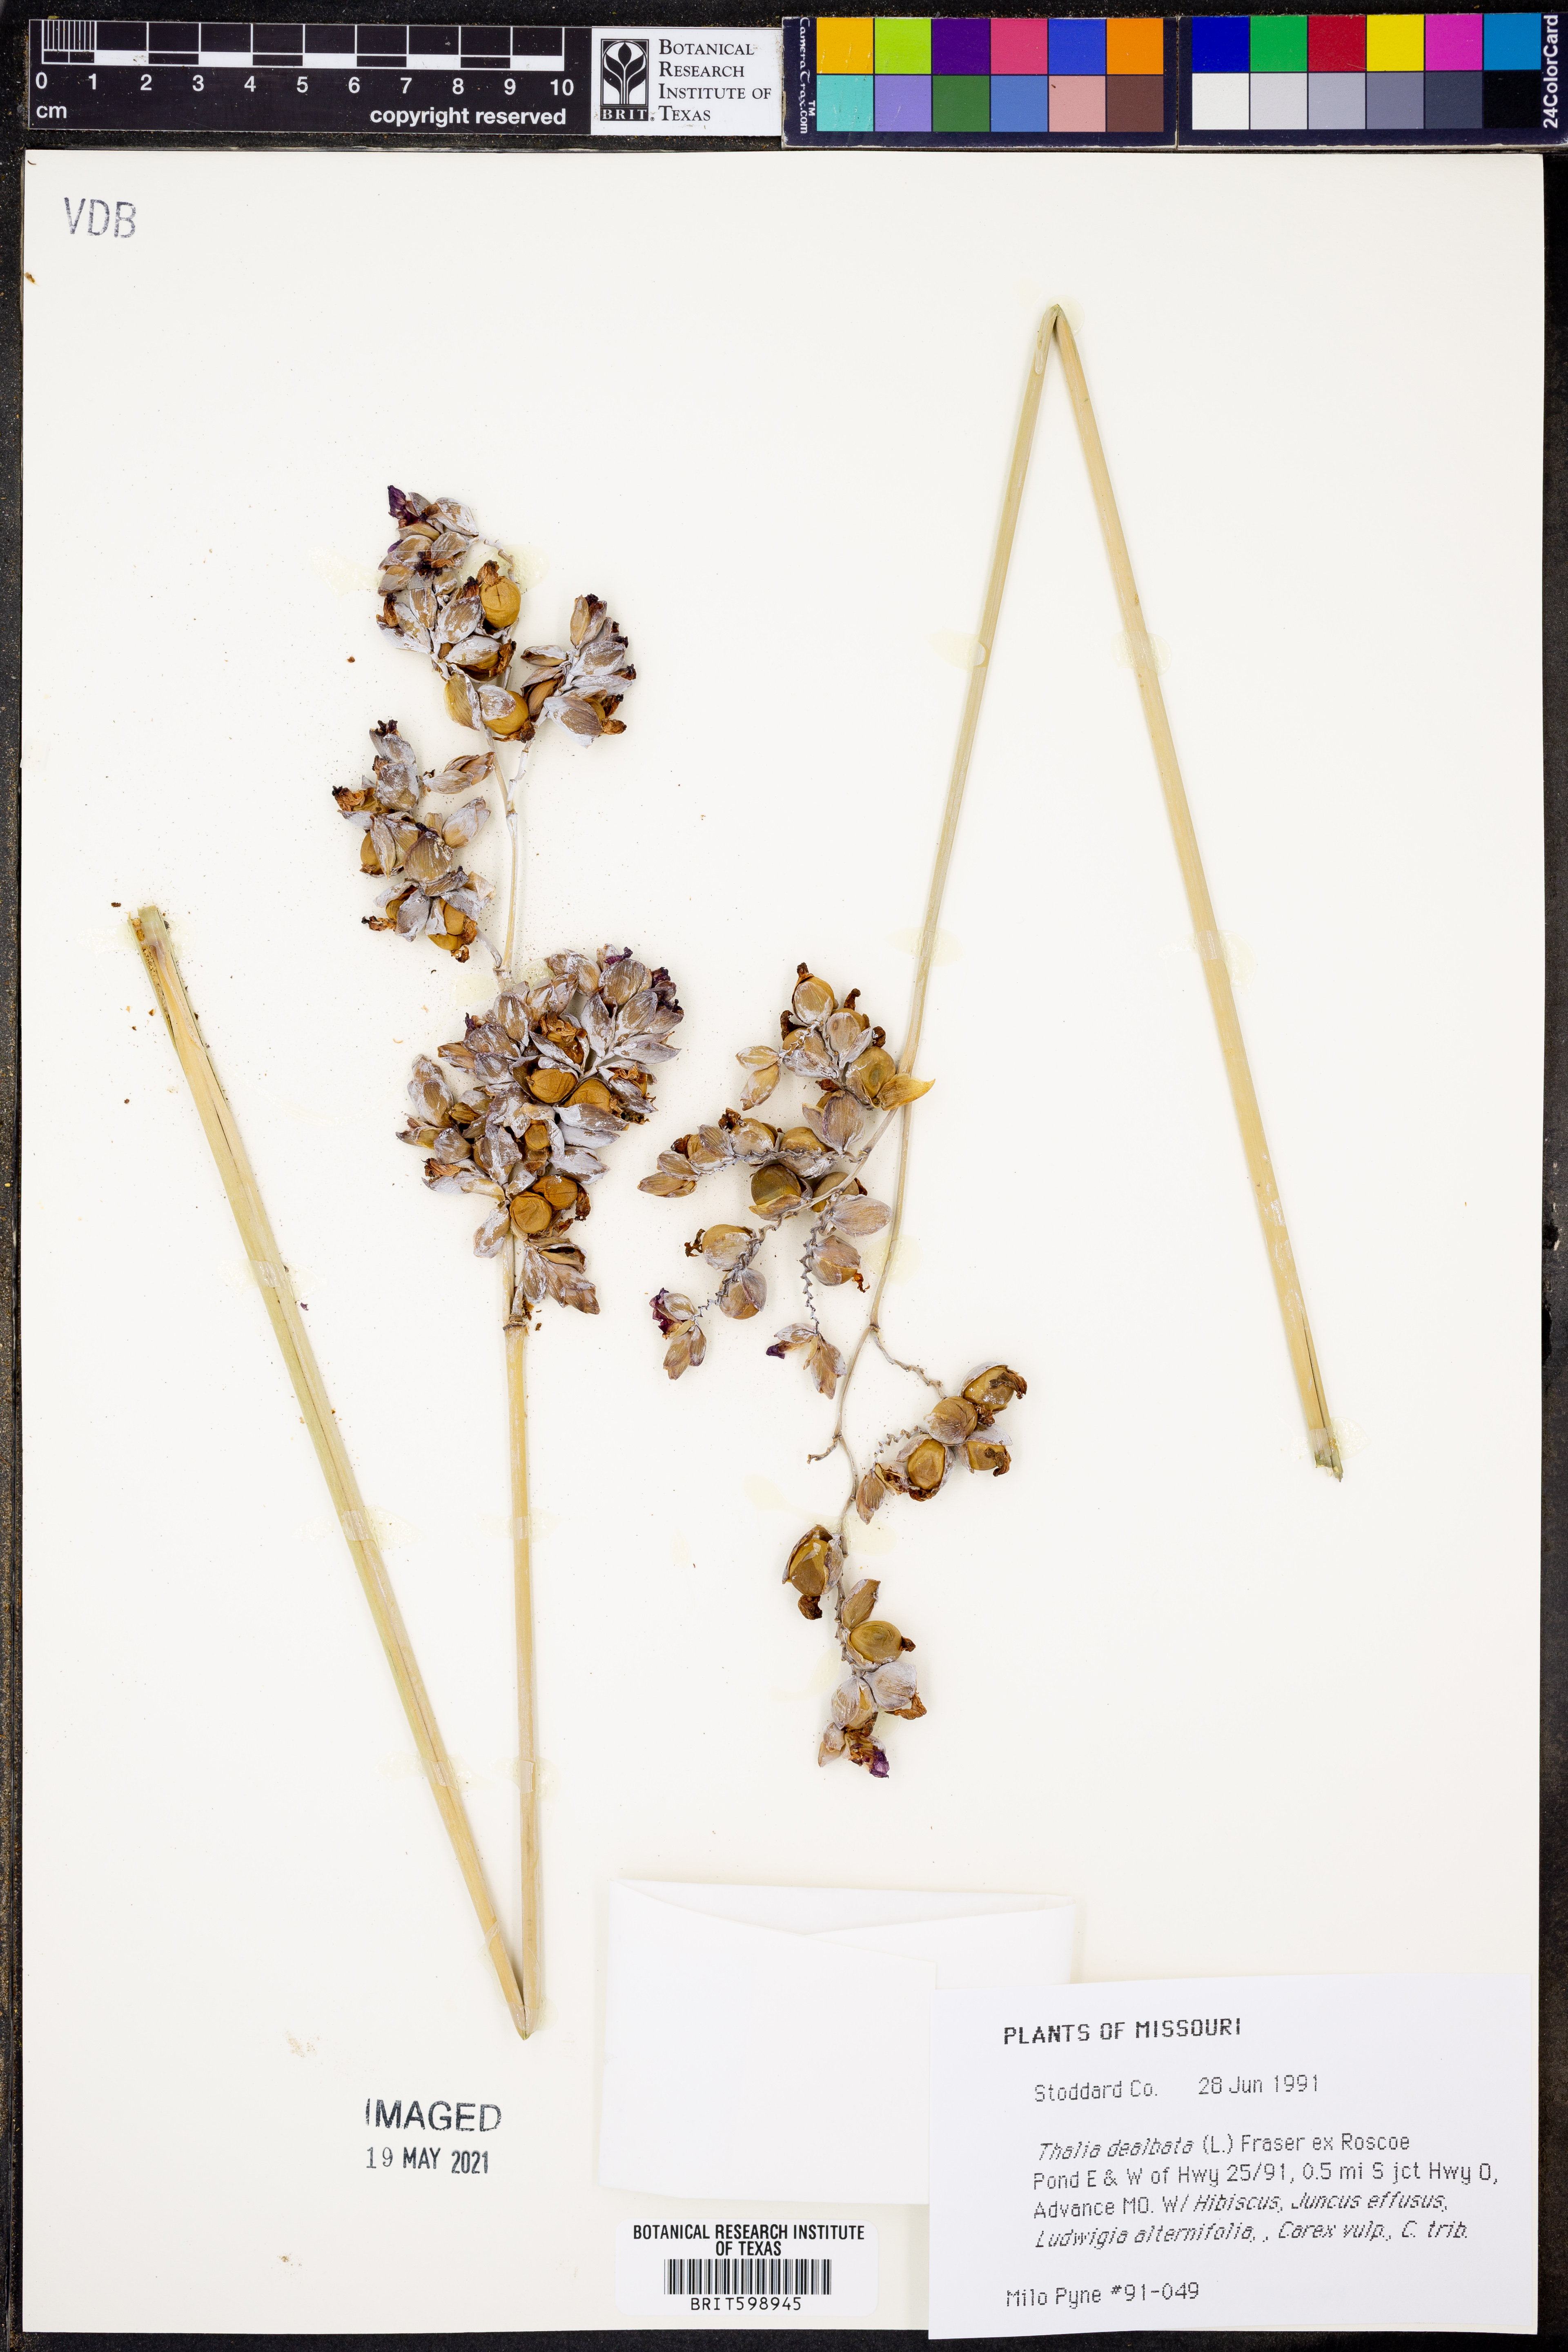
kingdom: Plantae
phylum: Tracheophyta
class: Liliopsida
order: Zingiberales
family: Marantaceae
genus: Thalia
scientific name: Thalia dealbata
